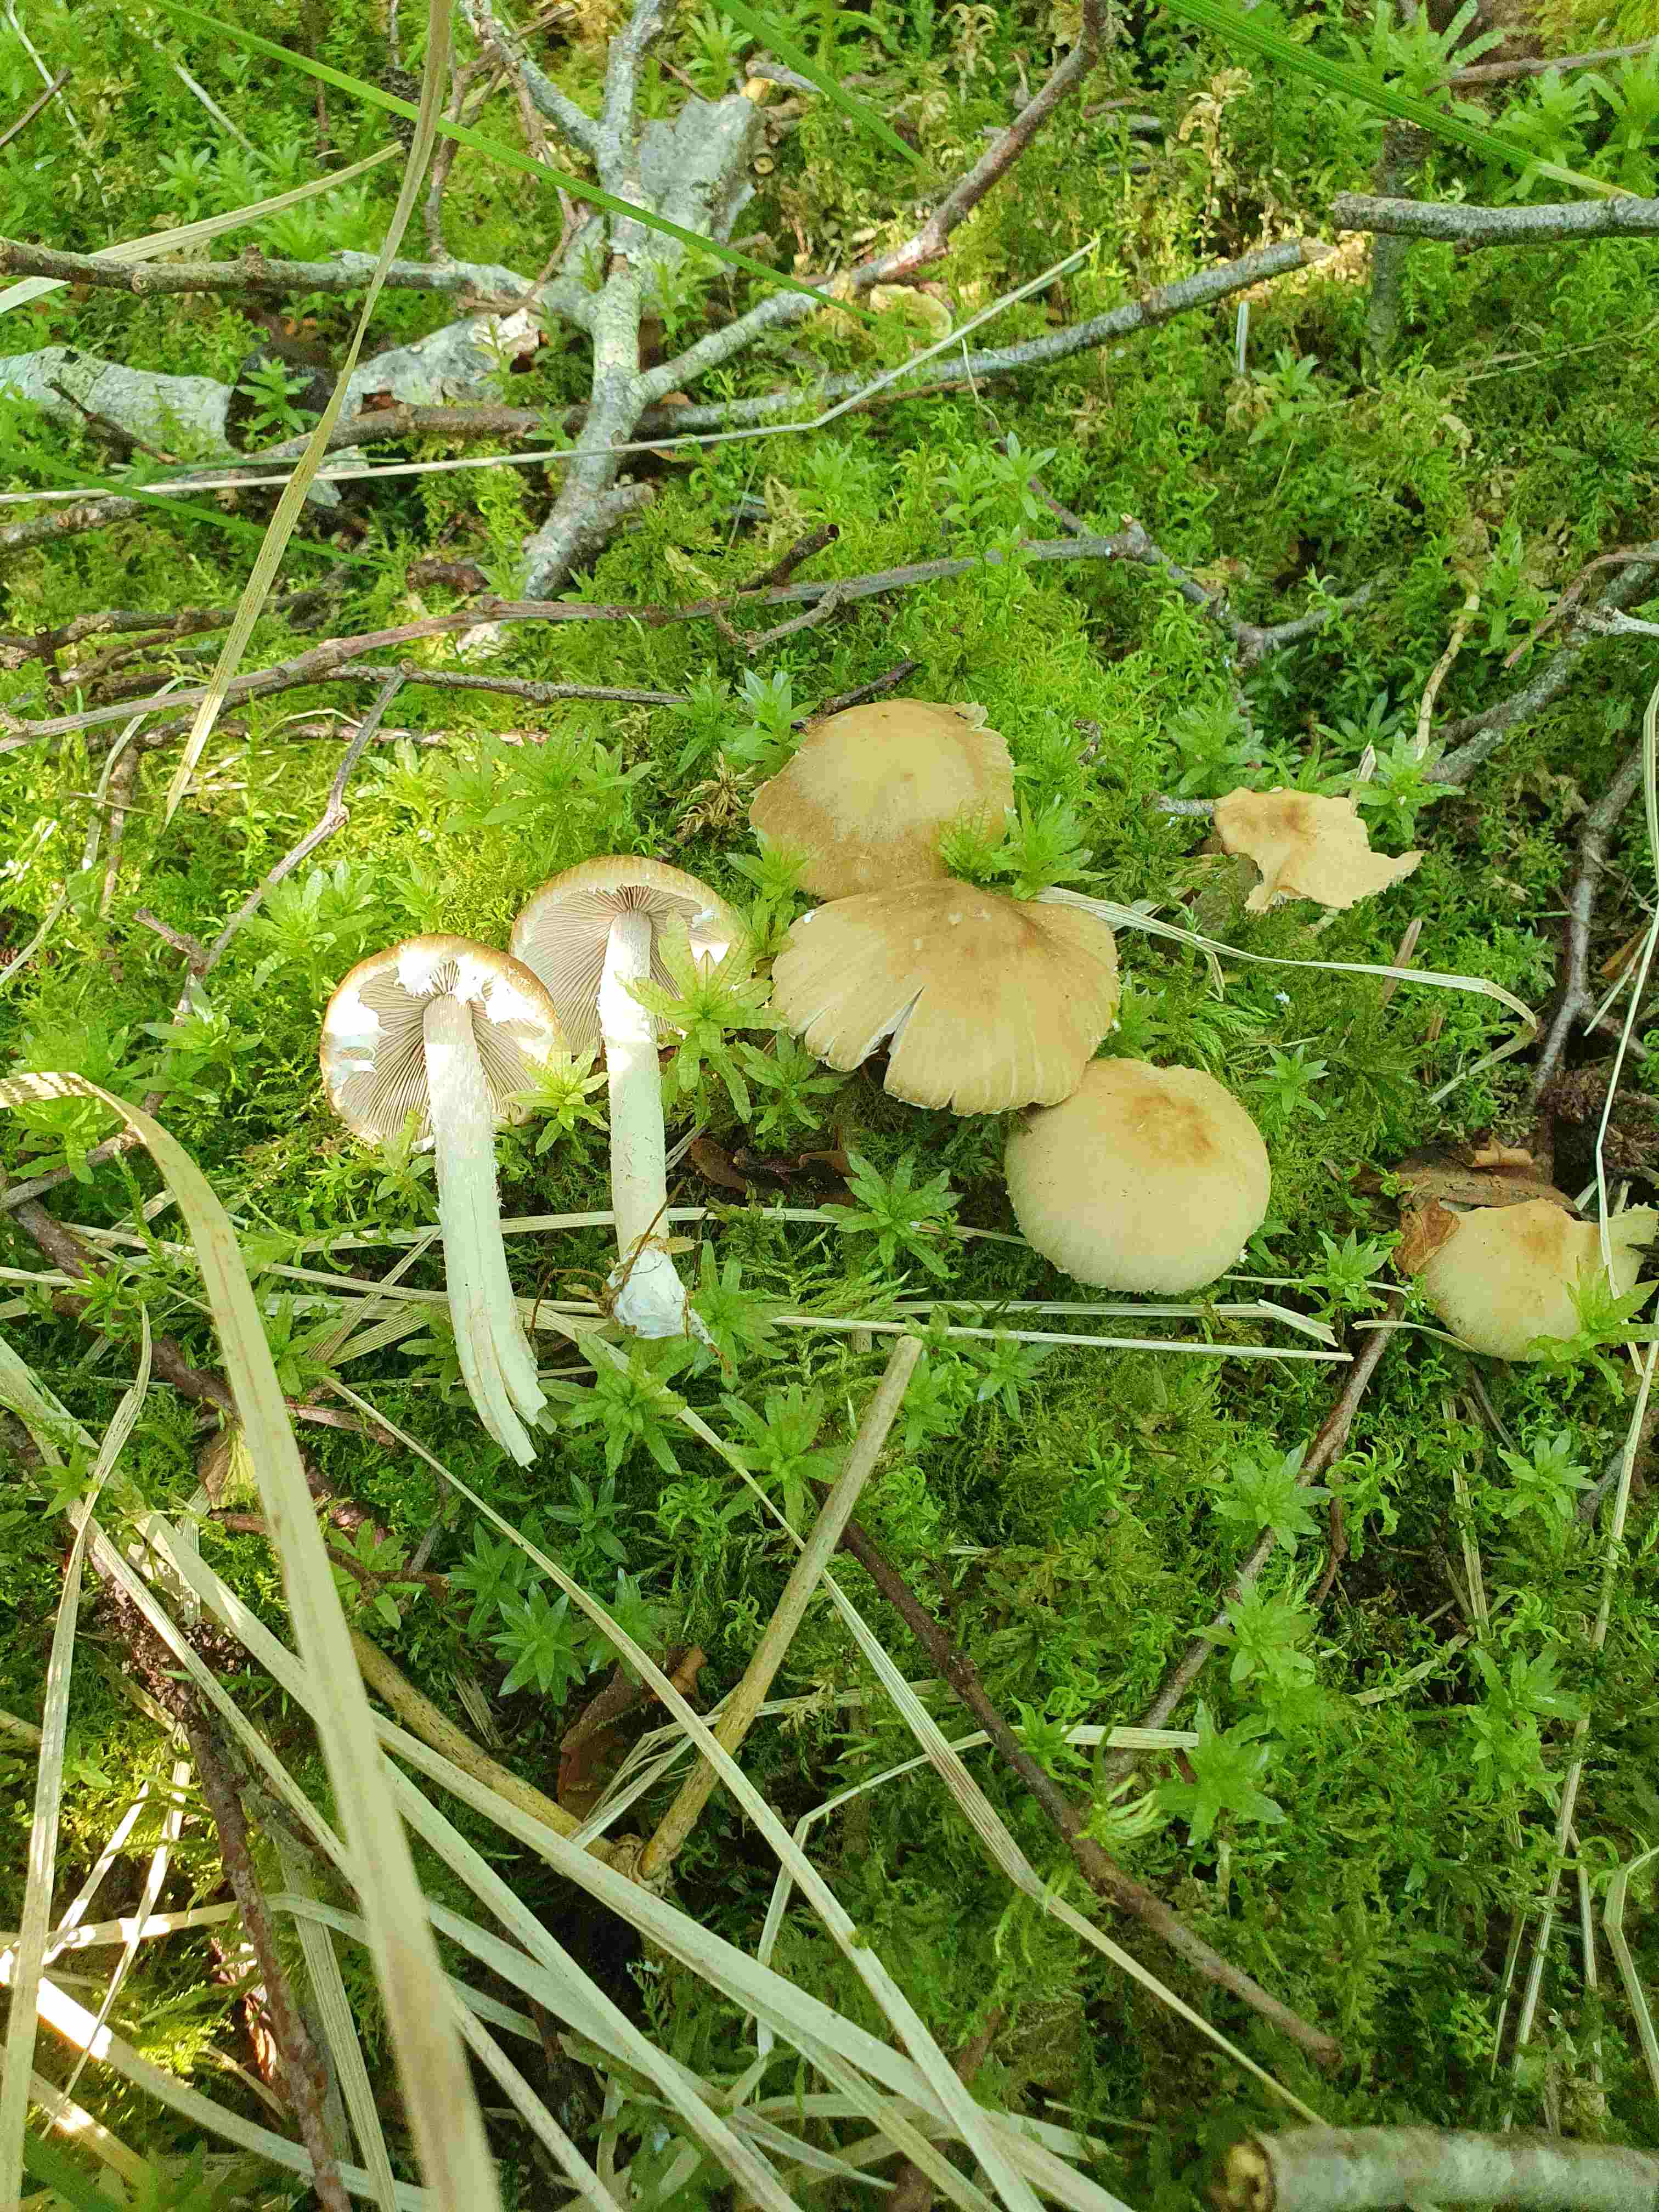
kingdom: Fungi
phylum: Basidiomycota
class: Agaricomycetes
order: Agaricales
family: Psathyrellaceae
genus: Candolleomyces
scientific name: Candolleomyces candolleanus
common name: Candolles mørkhat
